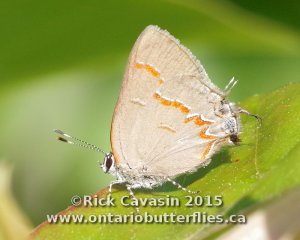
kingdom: Animalia
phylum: Arthropoda
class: Insecta
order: Lepidoptera
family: Lycaenidae
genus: Calycopis
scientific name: Calycopis cecrops
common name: Red-banded Hairstreak
